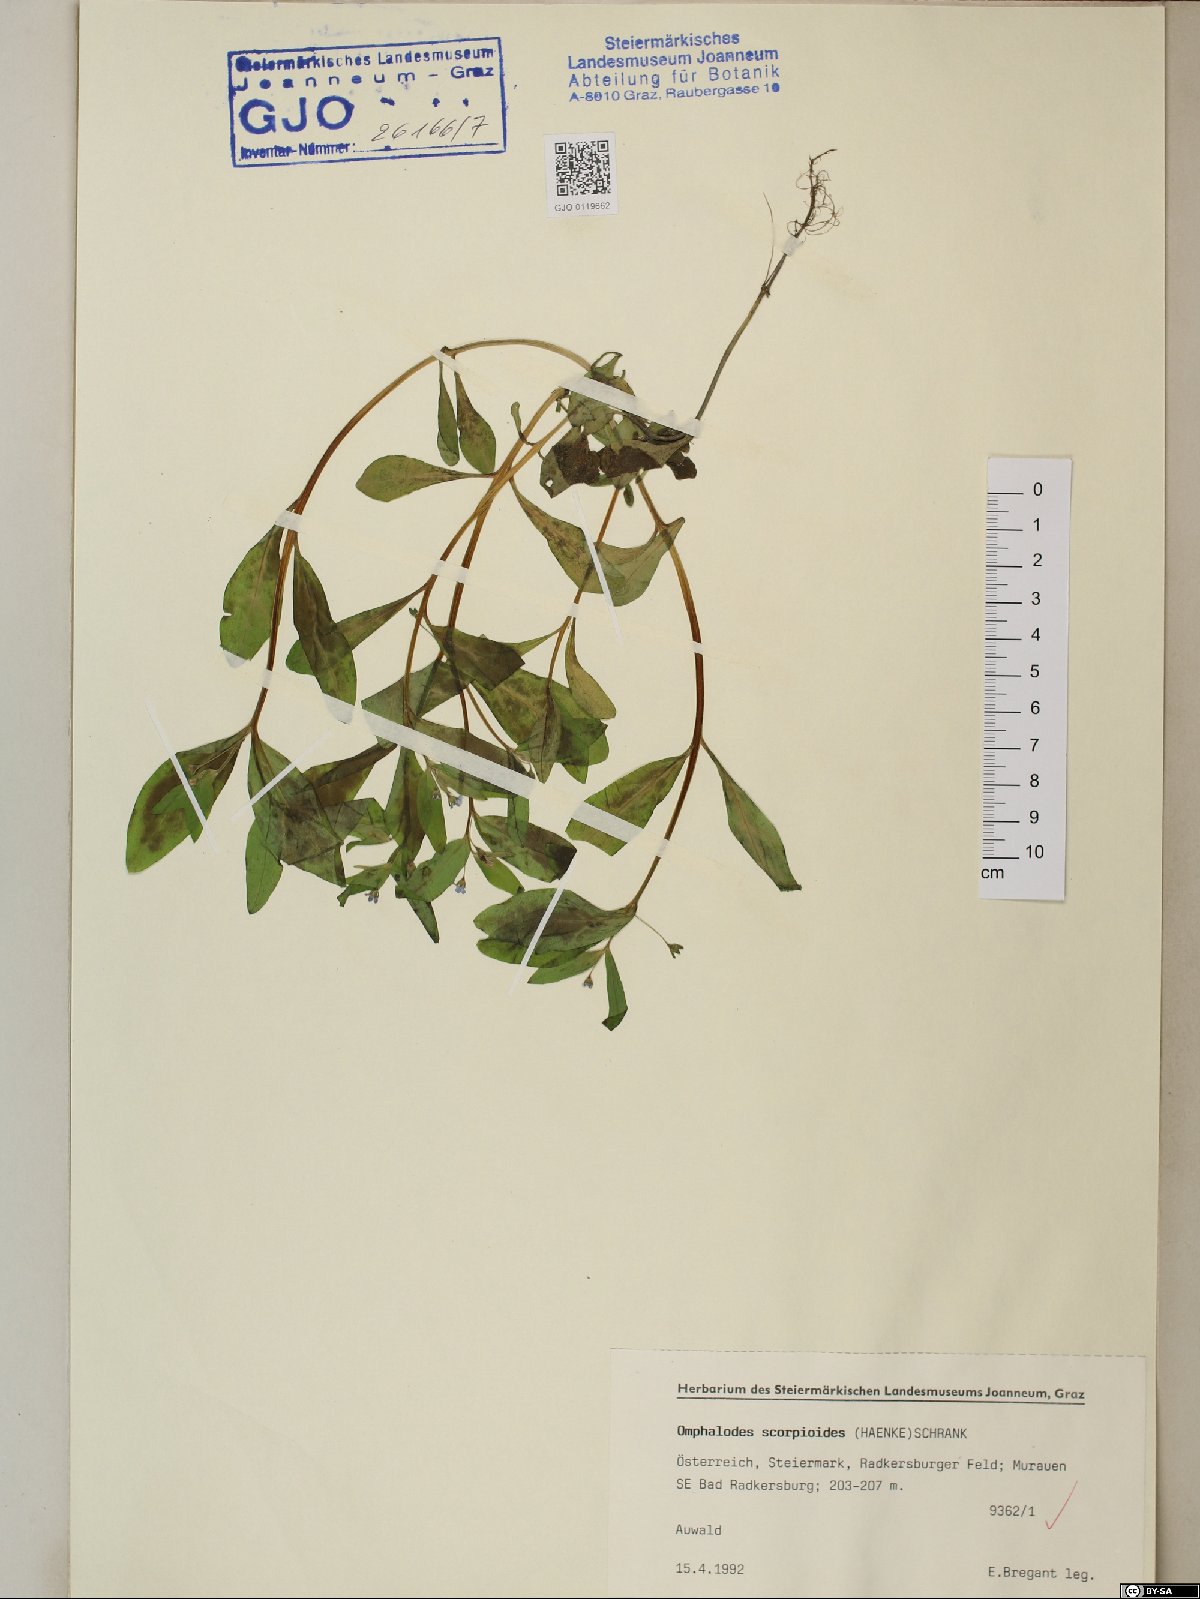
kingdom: Plantae
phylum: Tracheophyta
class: Magnoliopsida
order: Boraginales
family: Boraginaceae
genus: Memoremea
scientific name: Memoremea scorpioides
